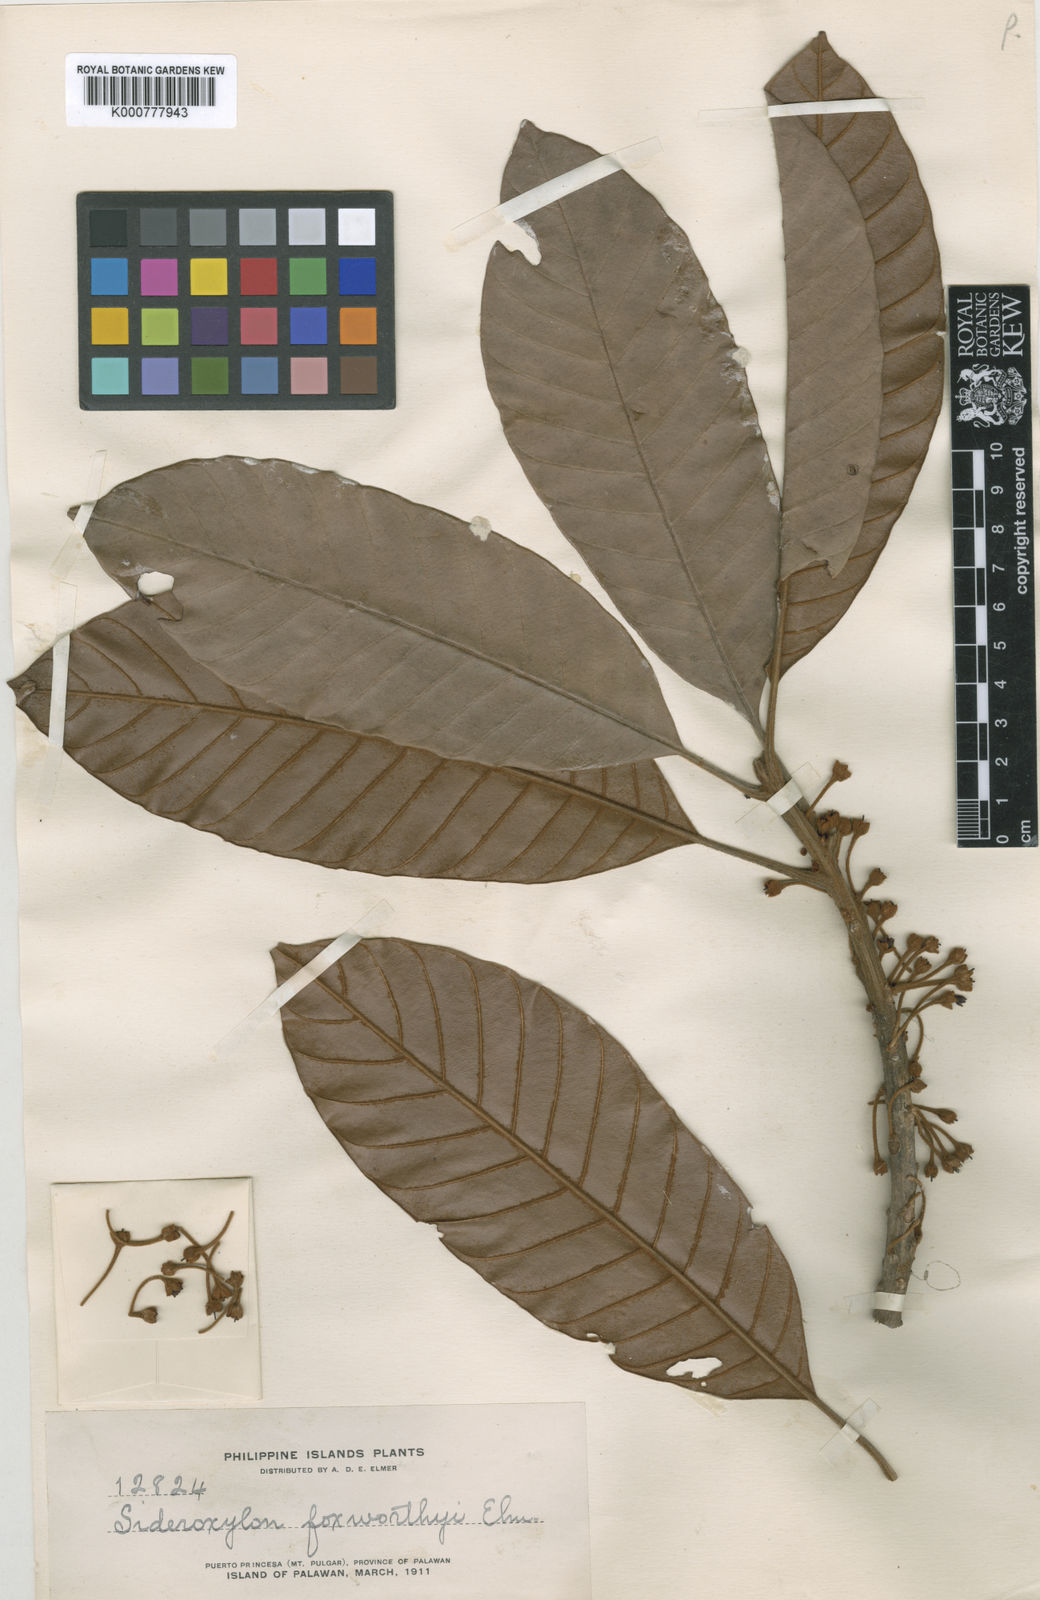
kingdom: Plantae
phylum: Tracheophyta
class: Magnoliopsida
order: Ericales
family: Sapotaceae
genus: Pouteria
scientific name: Pouteria
